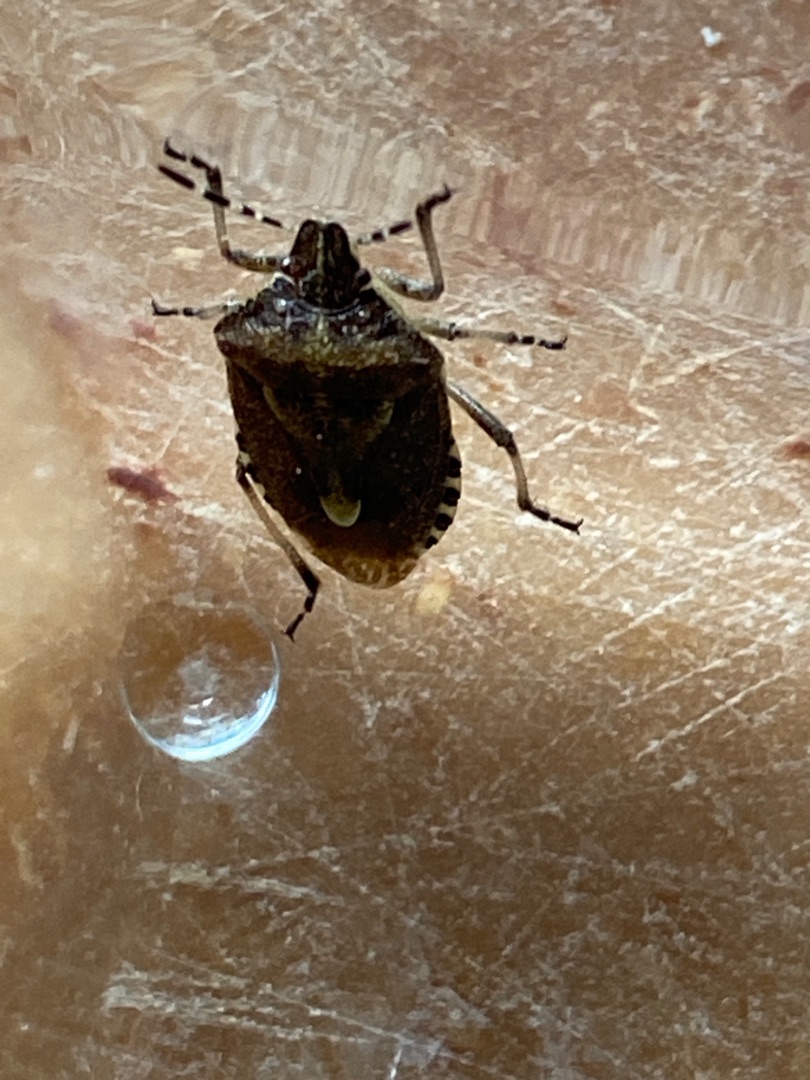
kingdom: Animalia
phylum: Arthropoda
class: Insecta
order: Hemiptera
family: Pentatomidae
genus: Dolycoris
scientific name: Dolycoris baccarum
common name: Almindelig bærtæge
